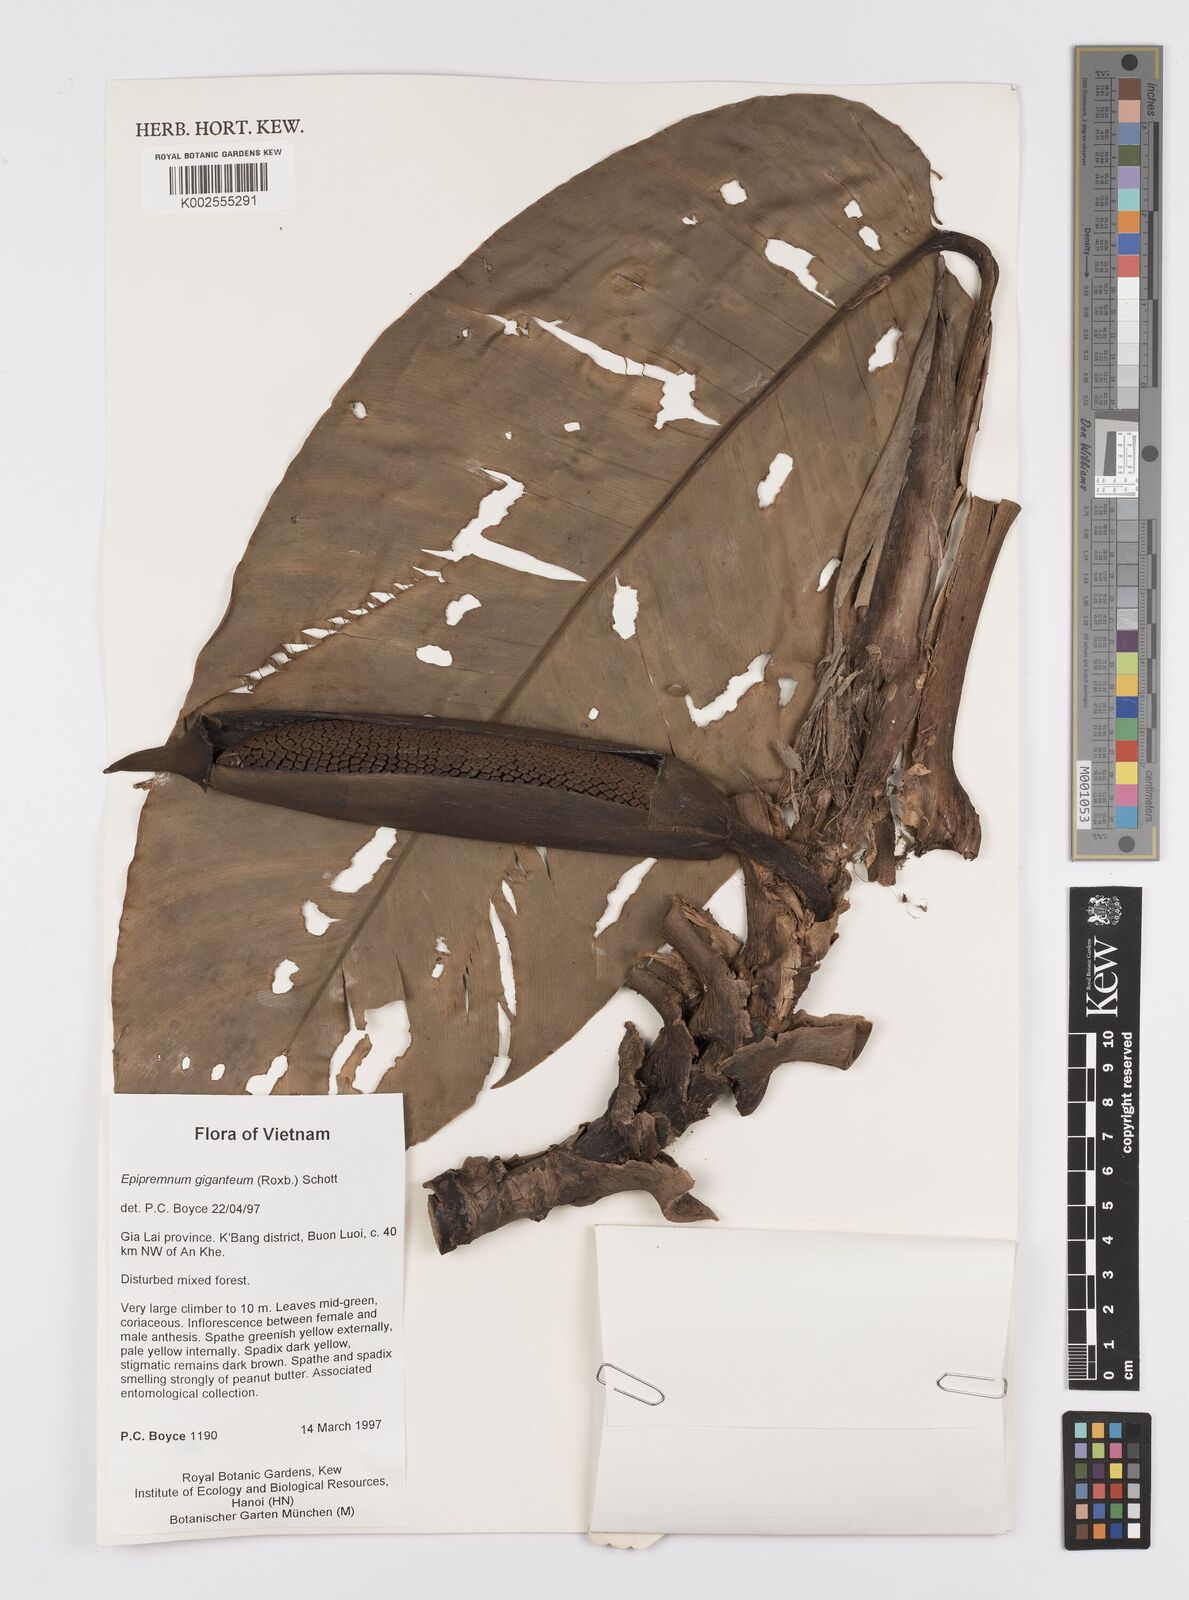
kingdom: Plantae
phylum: Tracheophyta
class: Liliopsida
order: Alismatales
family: Araceae
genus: Epipremnum
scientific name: Epipremnum giganteum
